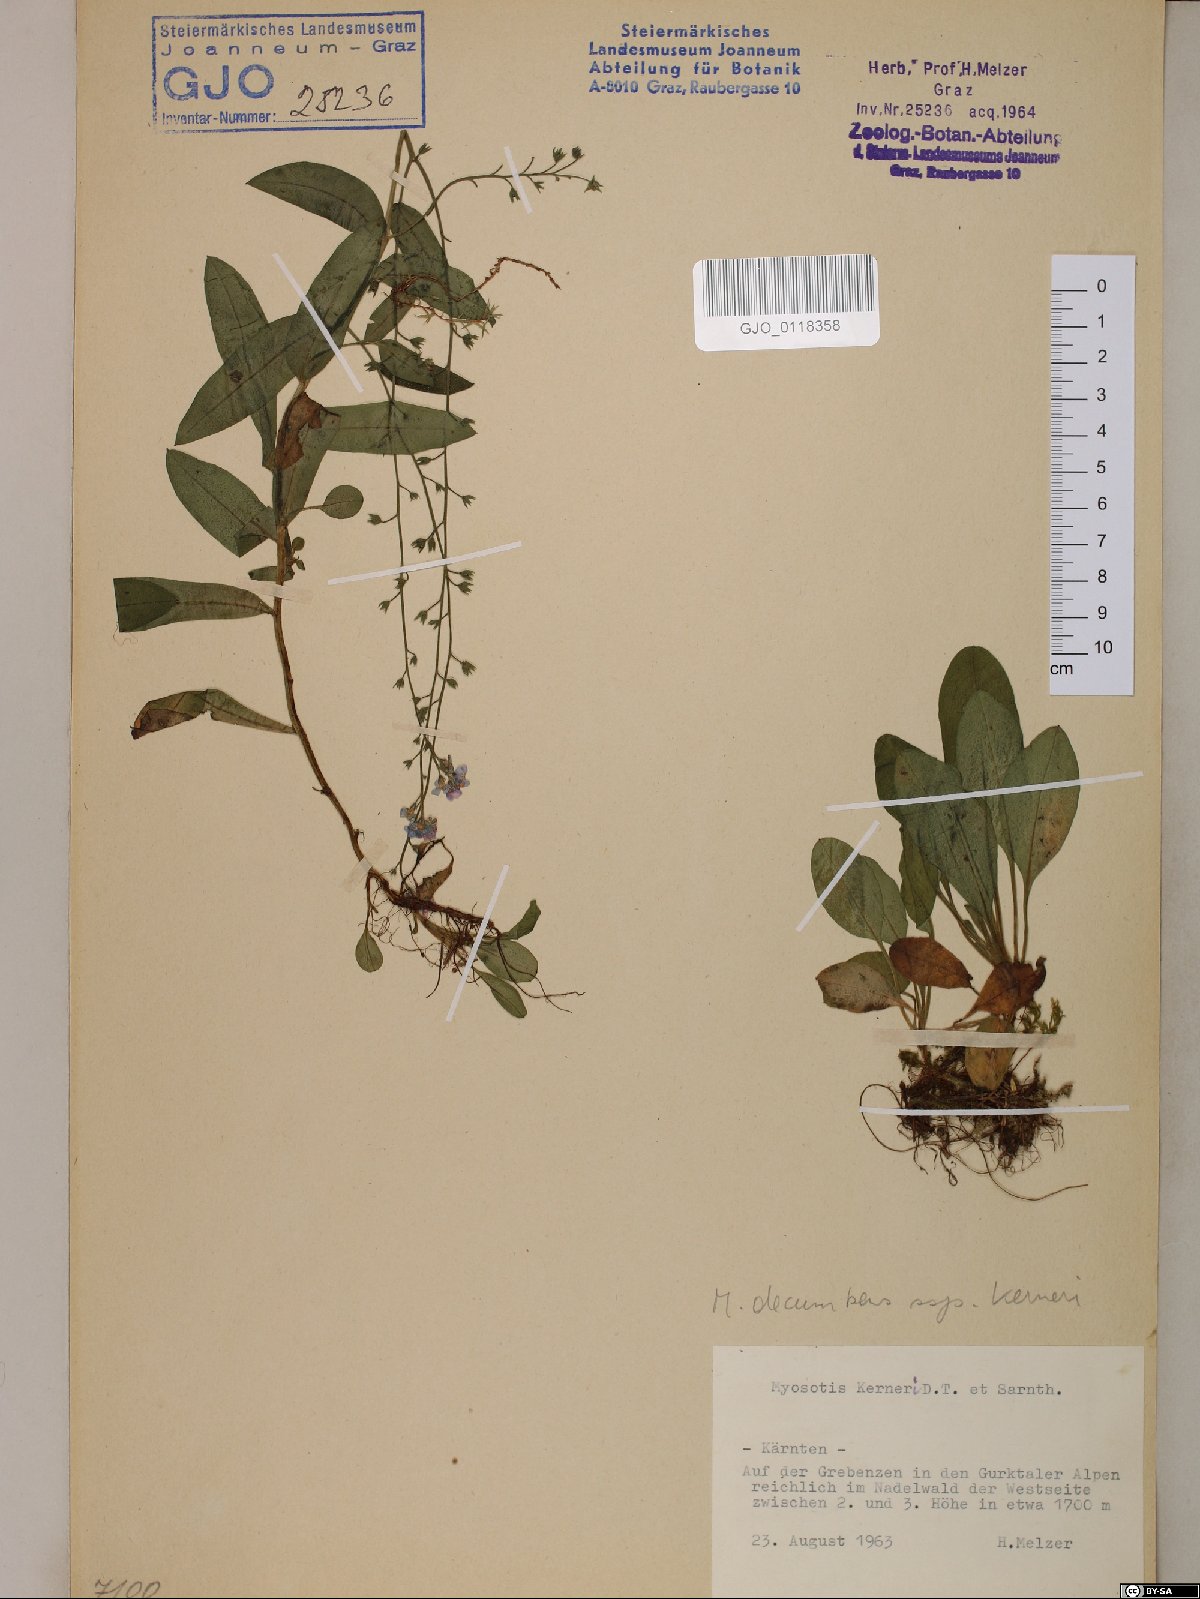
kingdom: Plantae
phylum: Tracheophyta
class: Magnoliopsida
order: Boraginales
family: Boraginaceae
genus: Myosotis
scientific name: Myosotis decumbens
